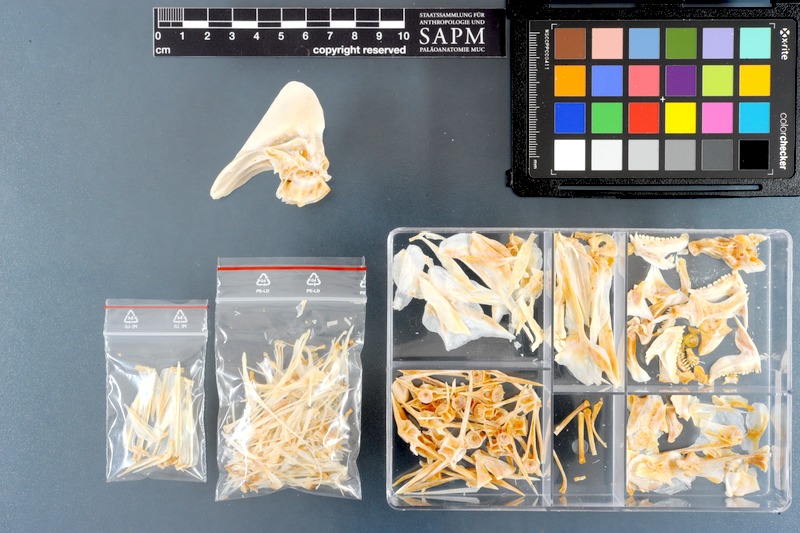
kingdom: Animalia
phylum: Chordata
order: Perciformes
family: Sparidae
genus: Argyrops
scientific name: Argyrops spinifer
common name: King soldier bream
